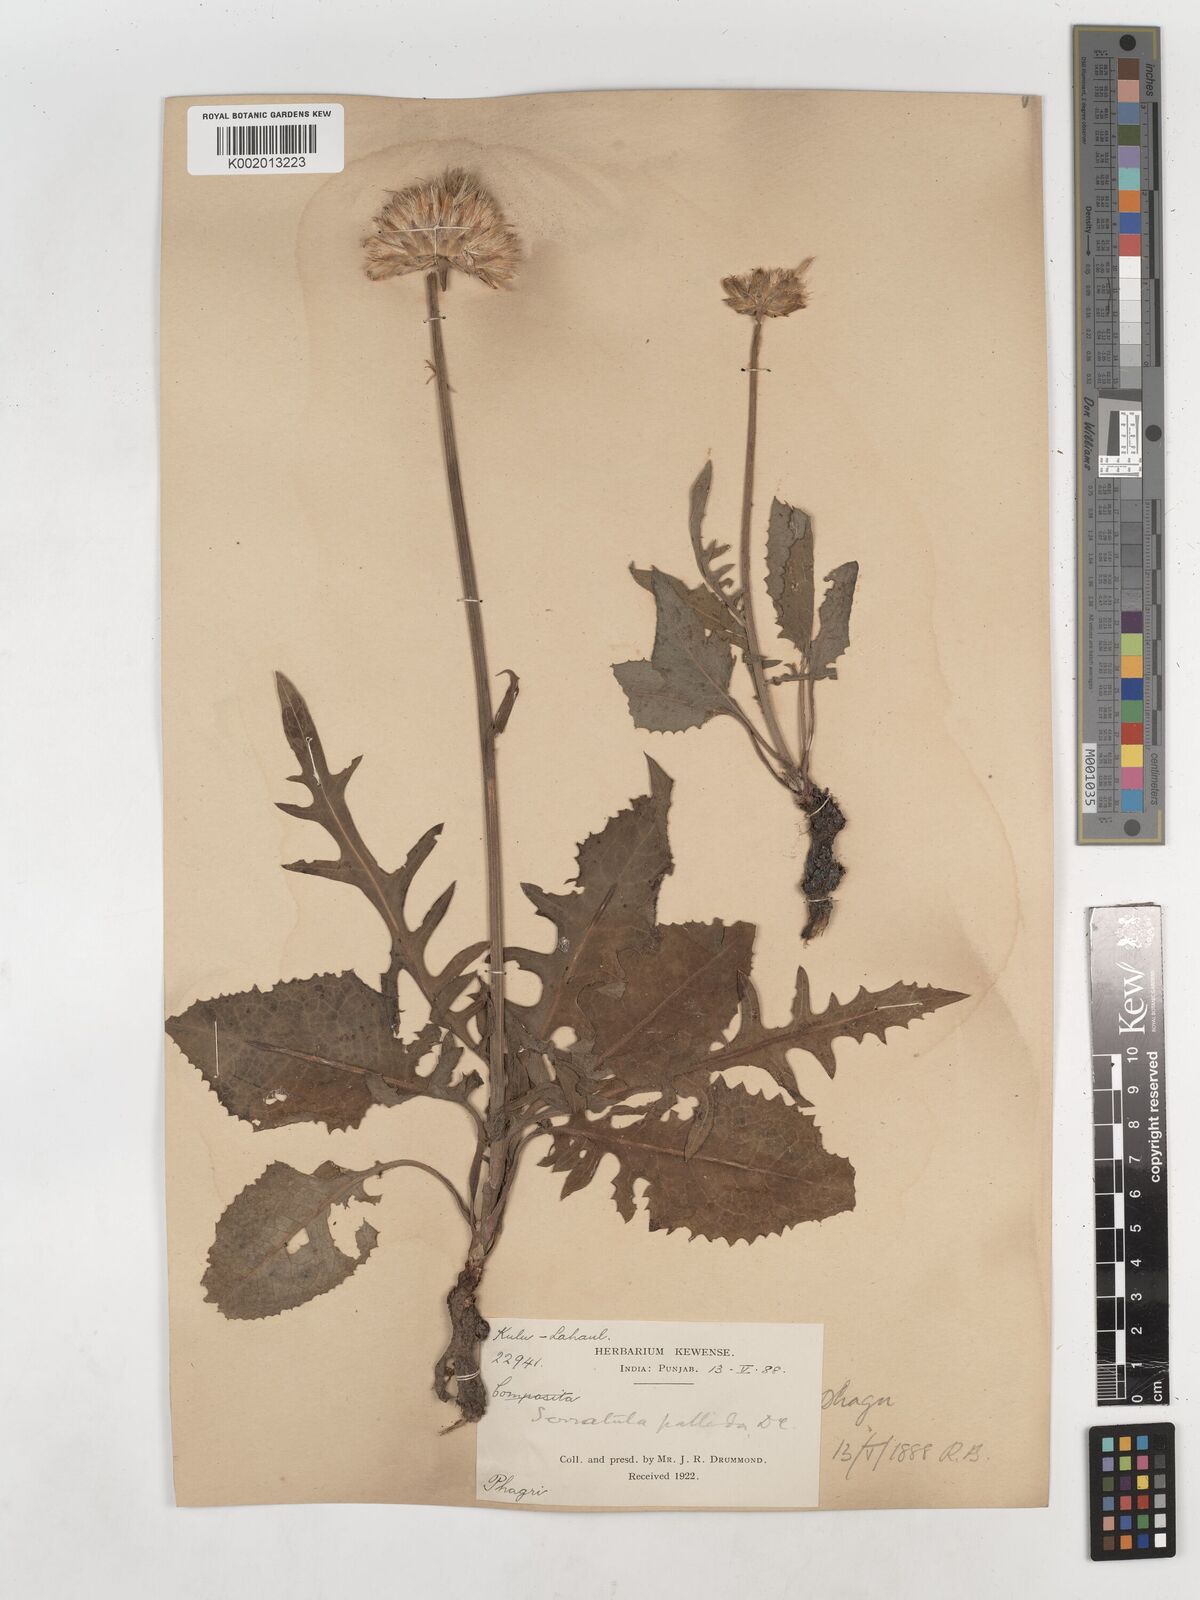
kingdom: Plantae
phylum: Tracheophyta
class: Magnoliopsida
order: Asterales
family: Asteraceae
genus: Klasea
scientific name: Klasea pallida
